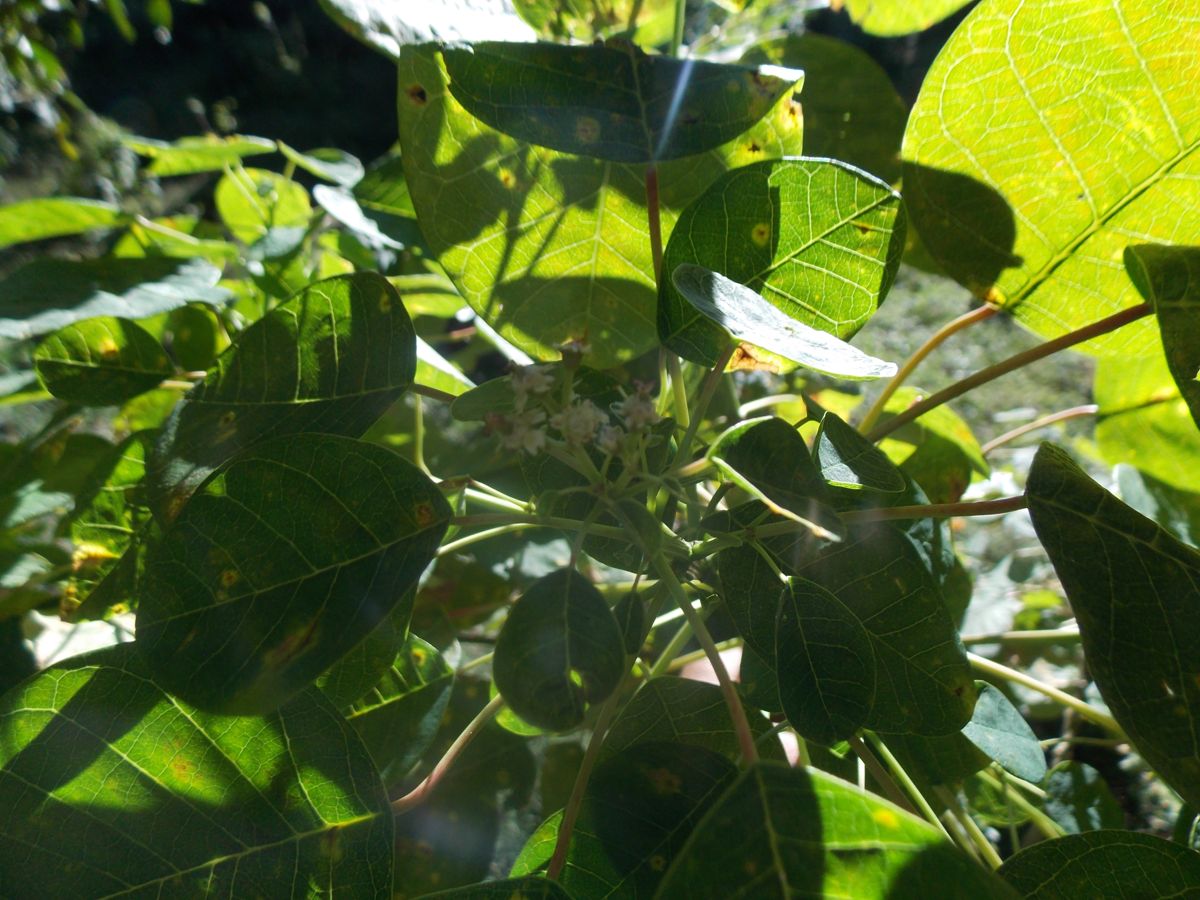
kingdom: Plantae
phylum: Tracheophyta
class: Magnoliopsida
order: Malpighiales
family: Euphorbiaceae
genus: Euphorbia
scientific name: Euphorbia cotinifolia
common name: Tropical smokebush
